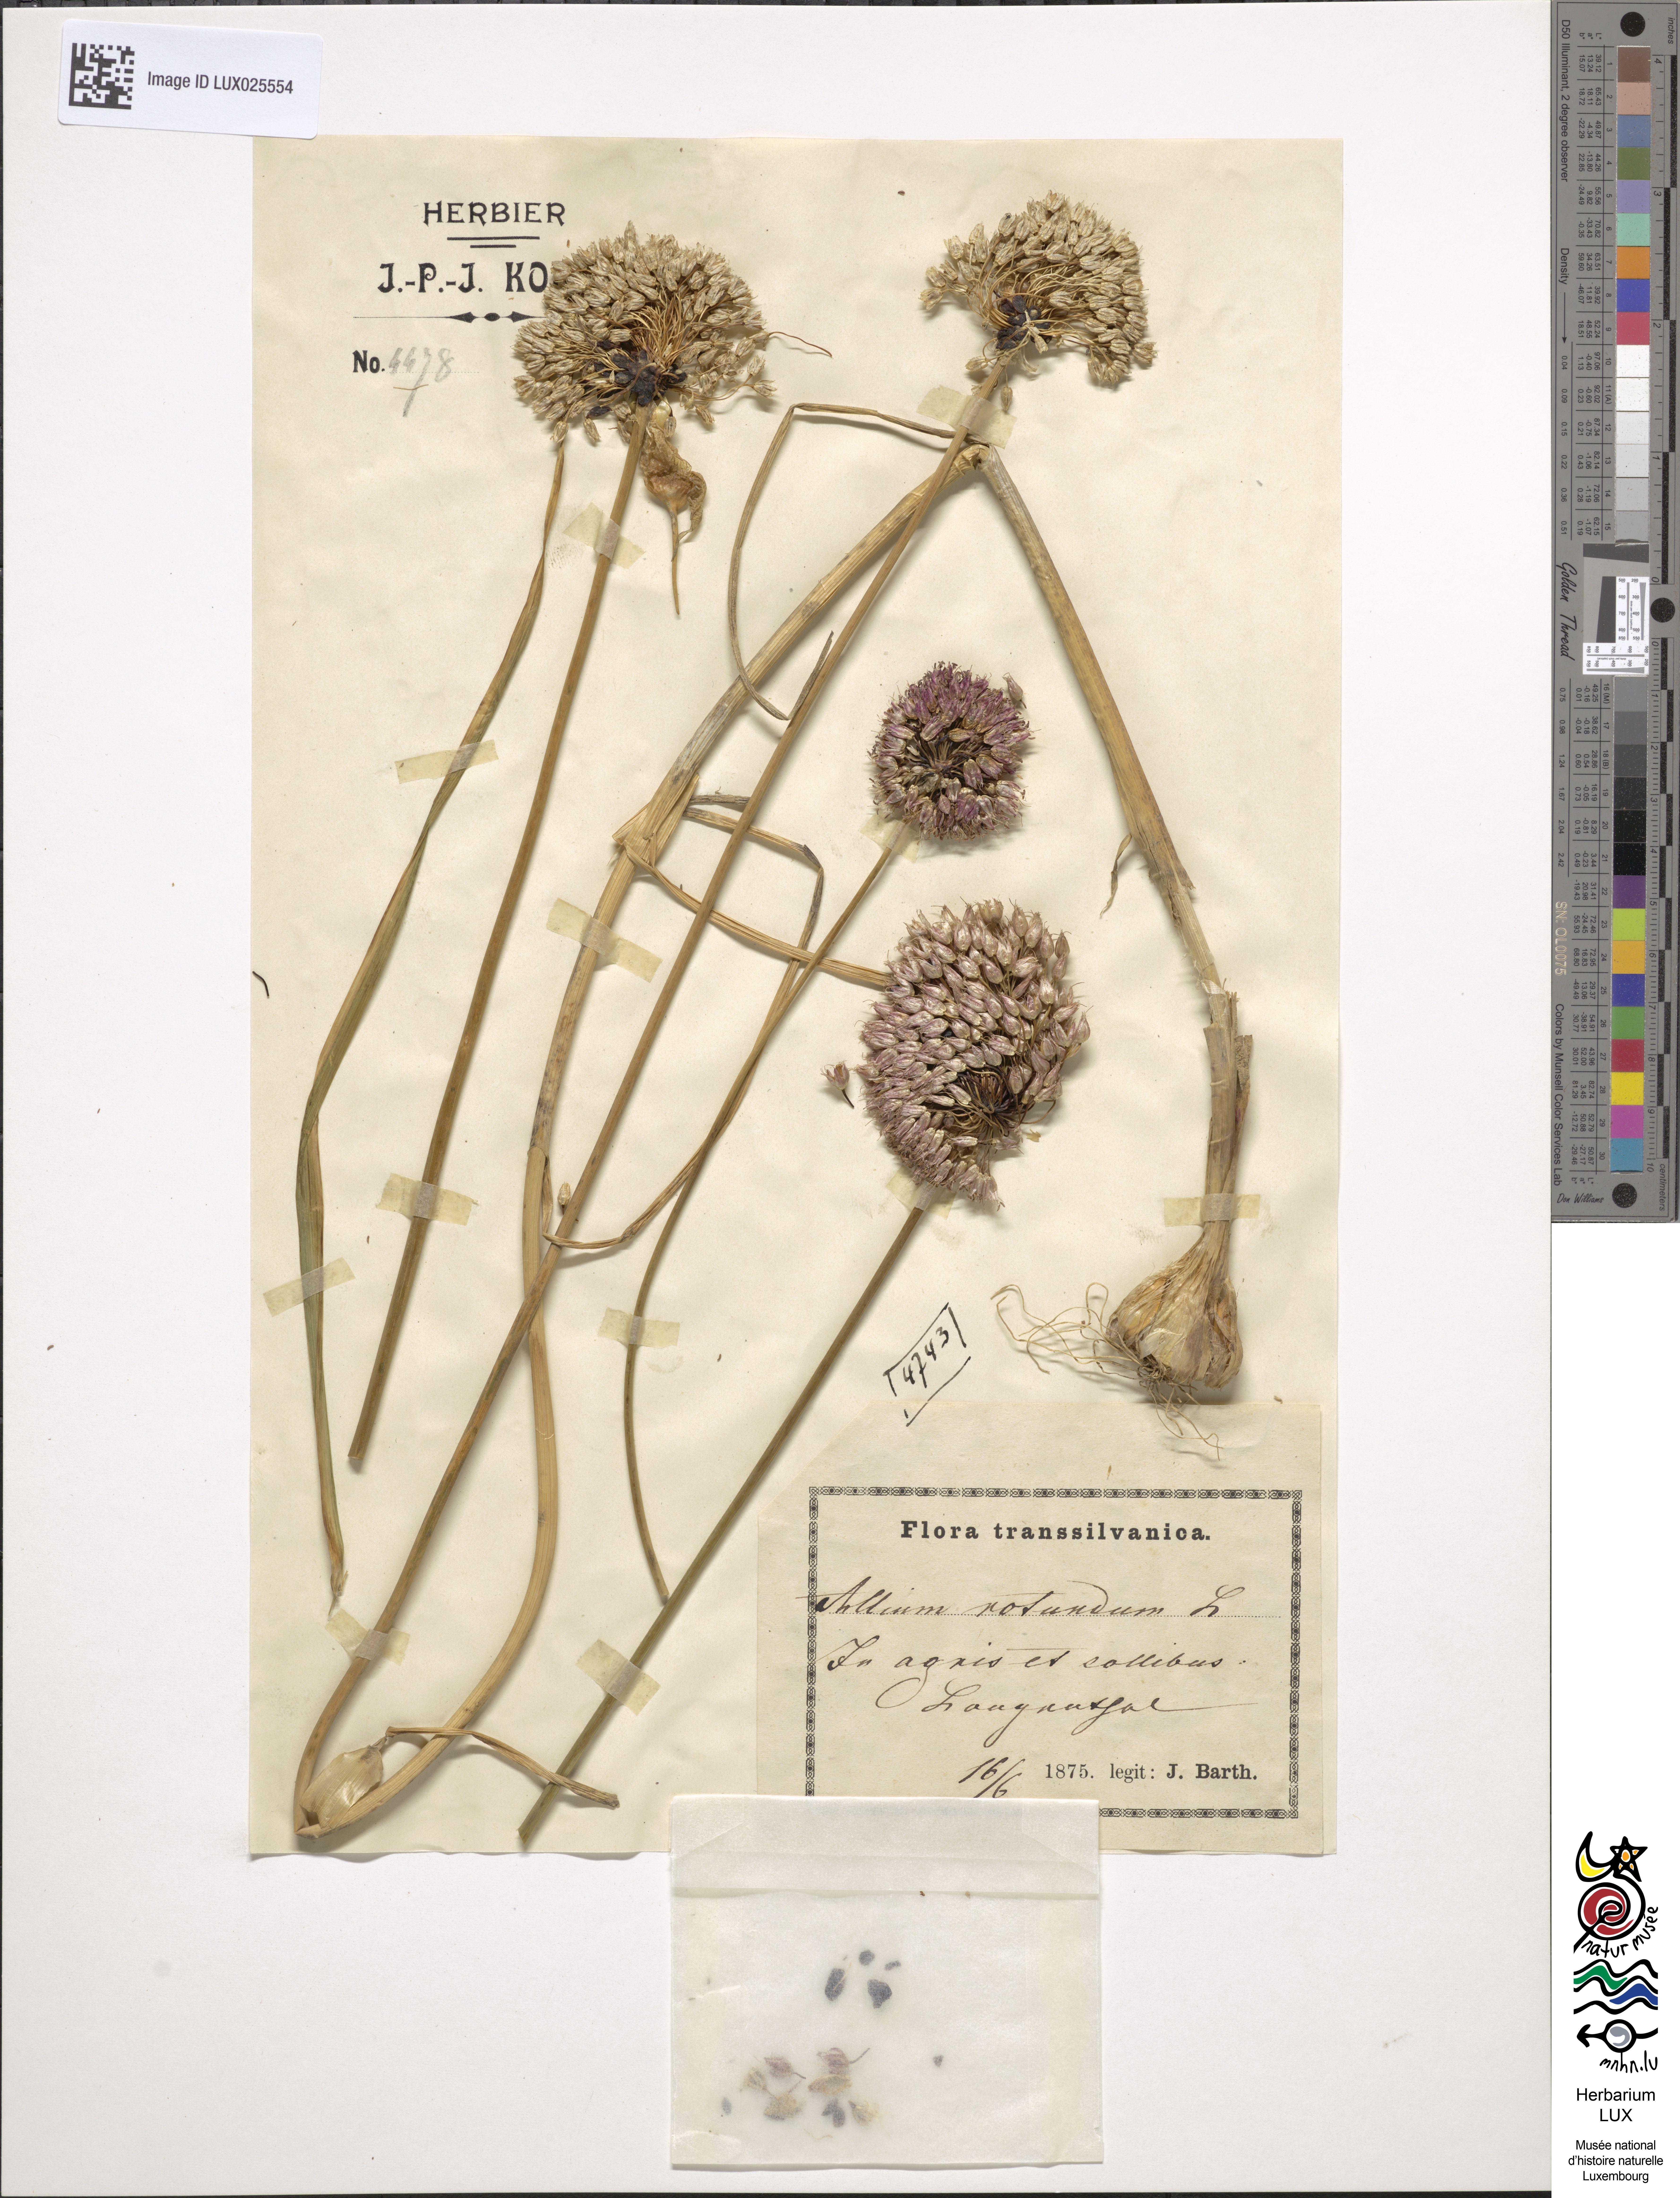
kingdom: Plantae
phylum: Tracheophyta
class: Liliopsida
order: Asparagales
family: Amaryllidaceae
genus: Allium
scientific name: Allium rotundum
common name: Sand leek
